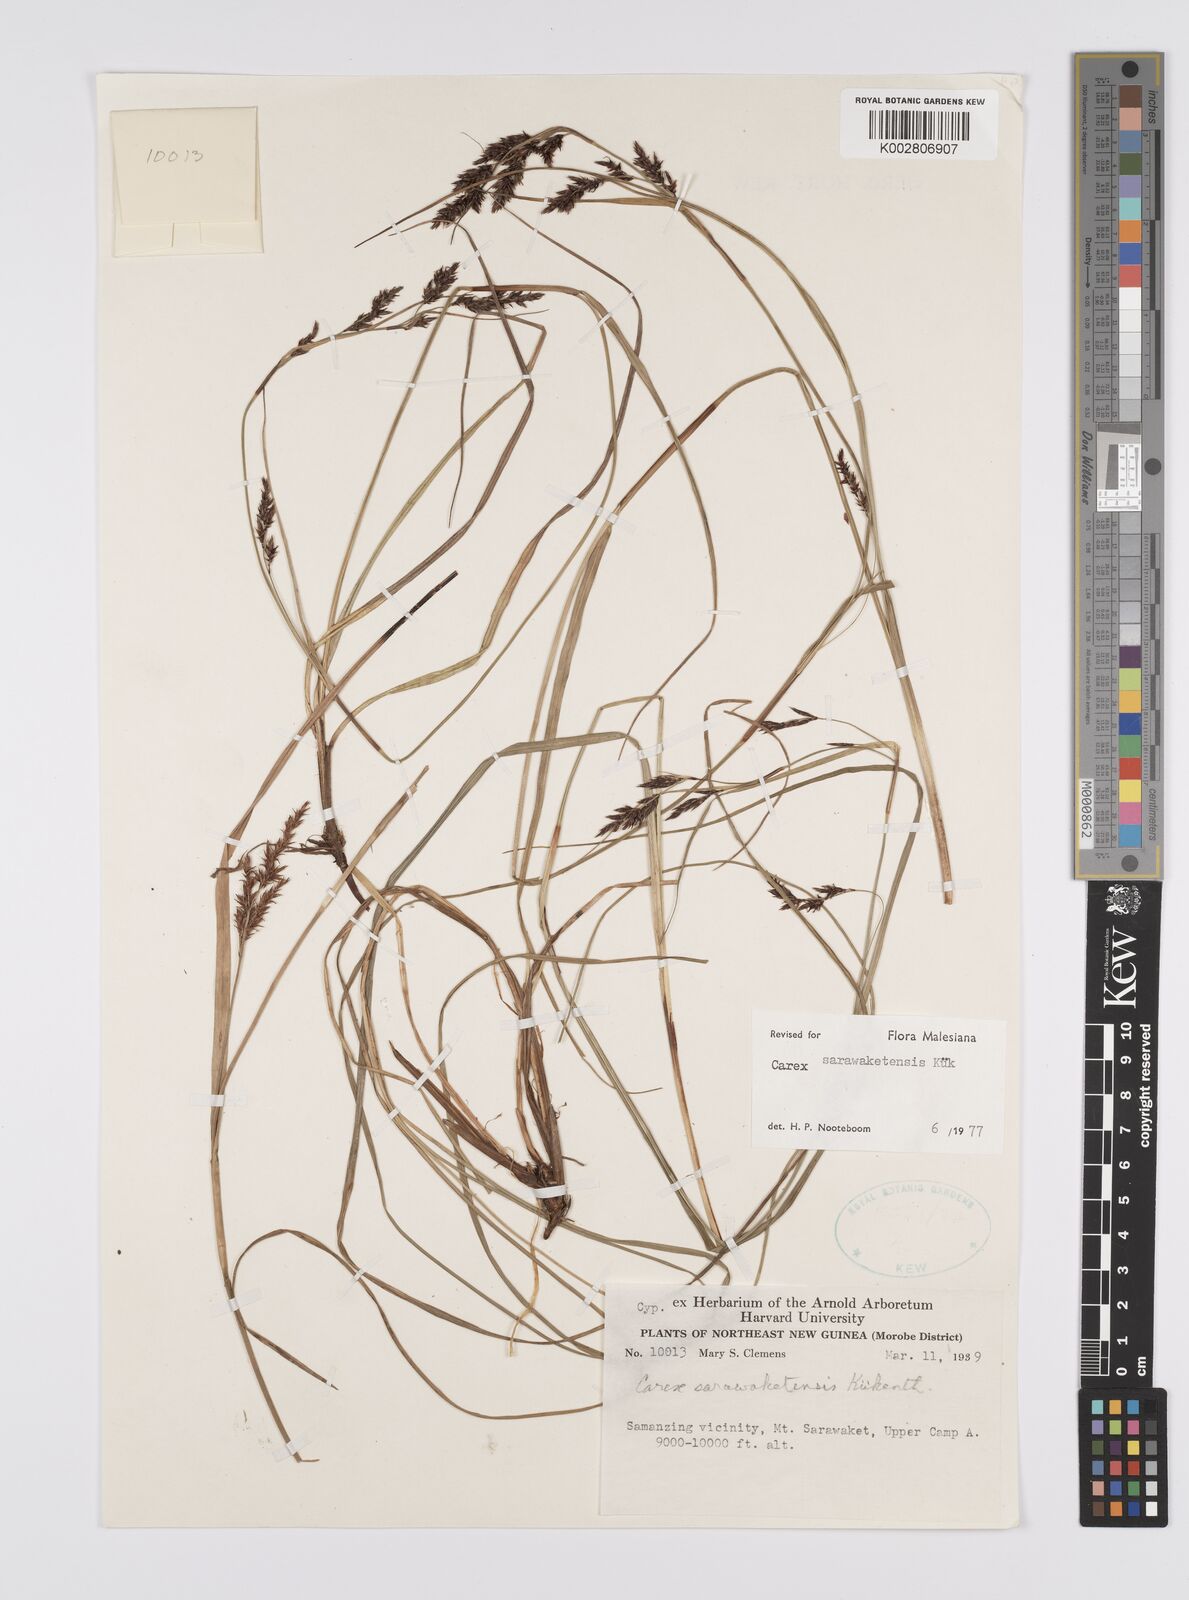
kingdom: Plantae
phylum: Tracheophyta
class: Liliopsida
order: Poales
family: Cyperaceae
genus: Carex
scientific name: Carex sarawaketensis
